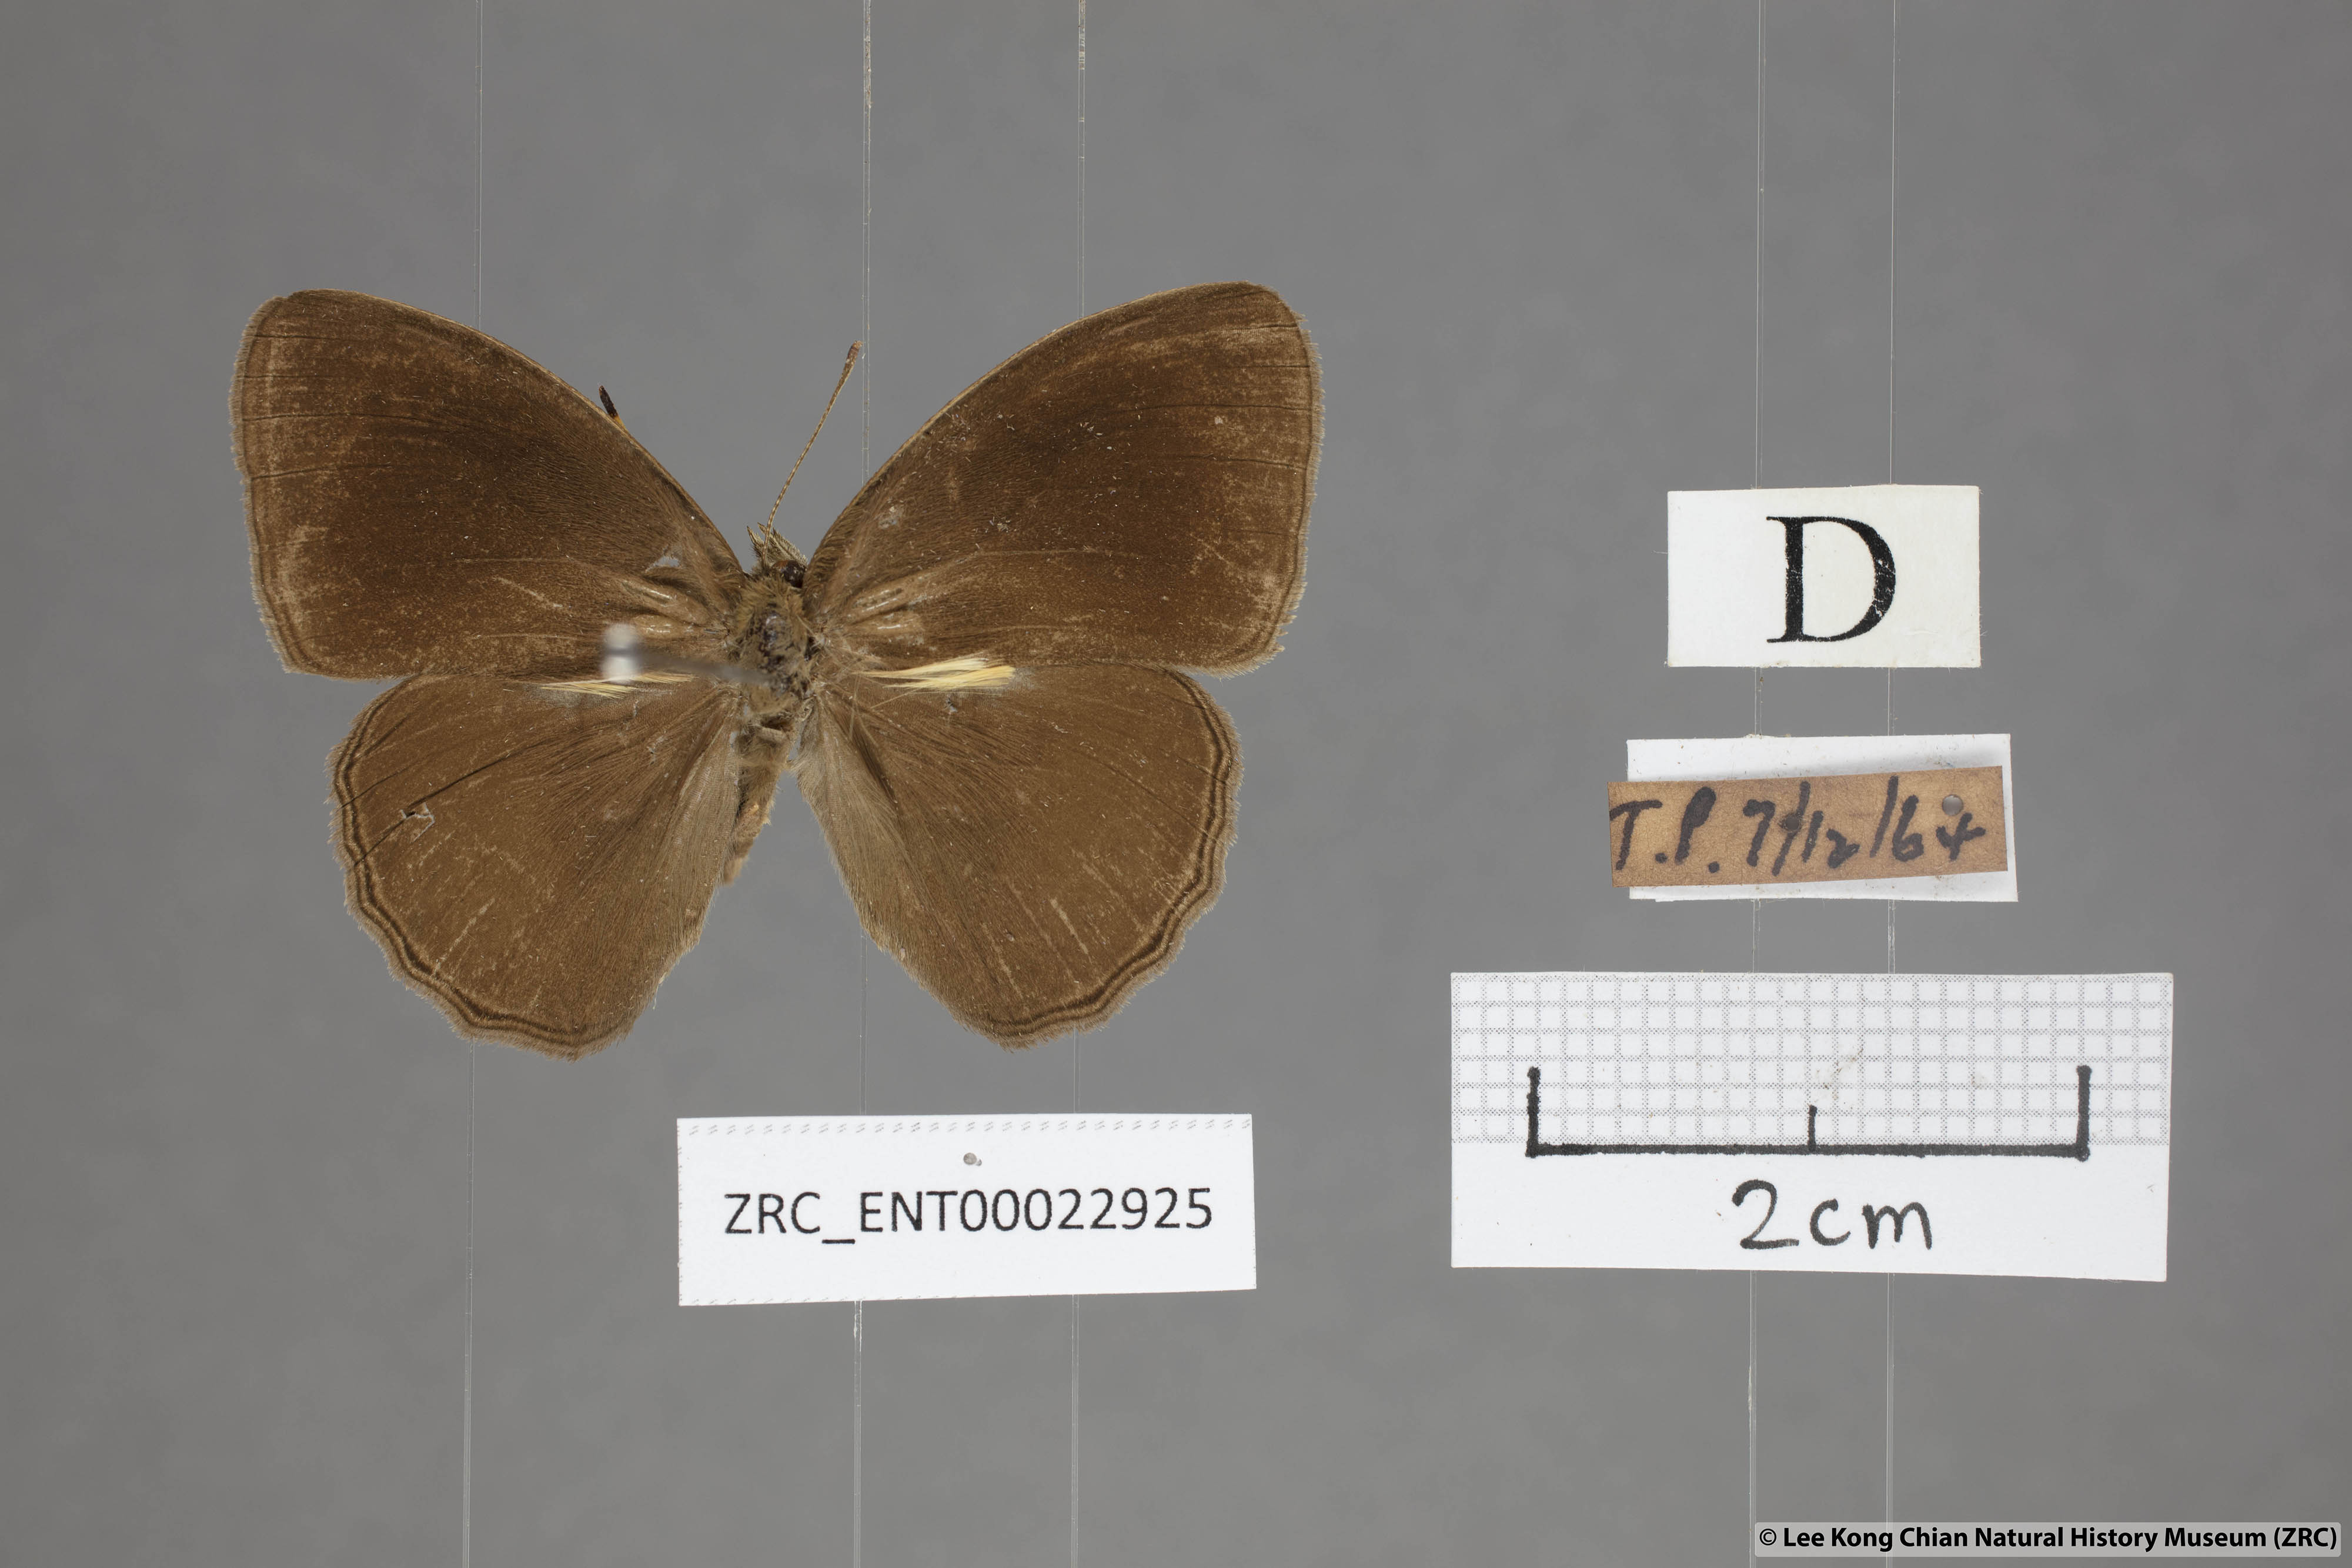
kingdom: Animalia
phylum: Arthropoda
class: Insecta
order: Lepidoptera
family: Nymphalidae
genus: Mycalesis
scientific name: Mycalesis janardana
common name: Common bush brown
